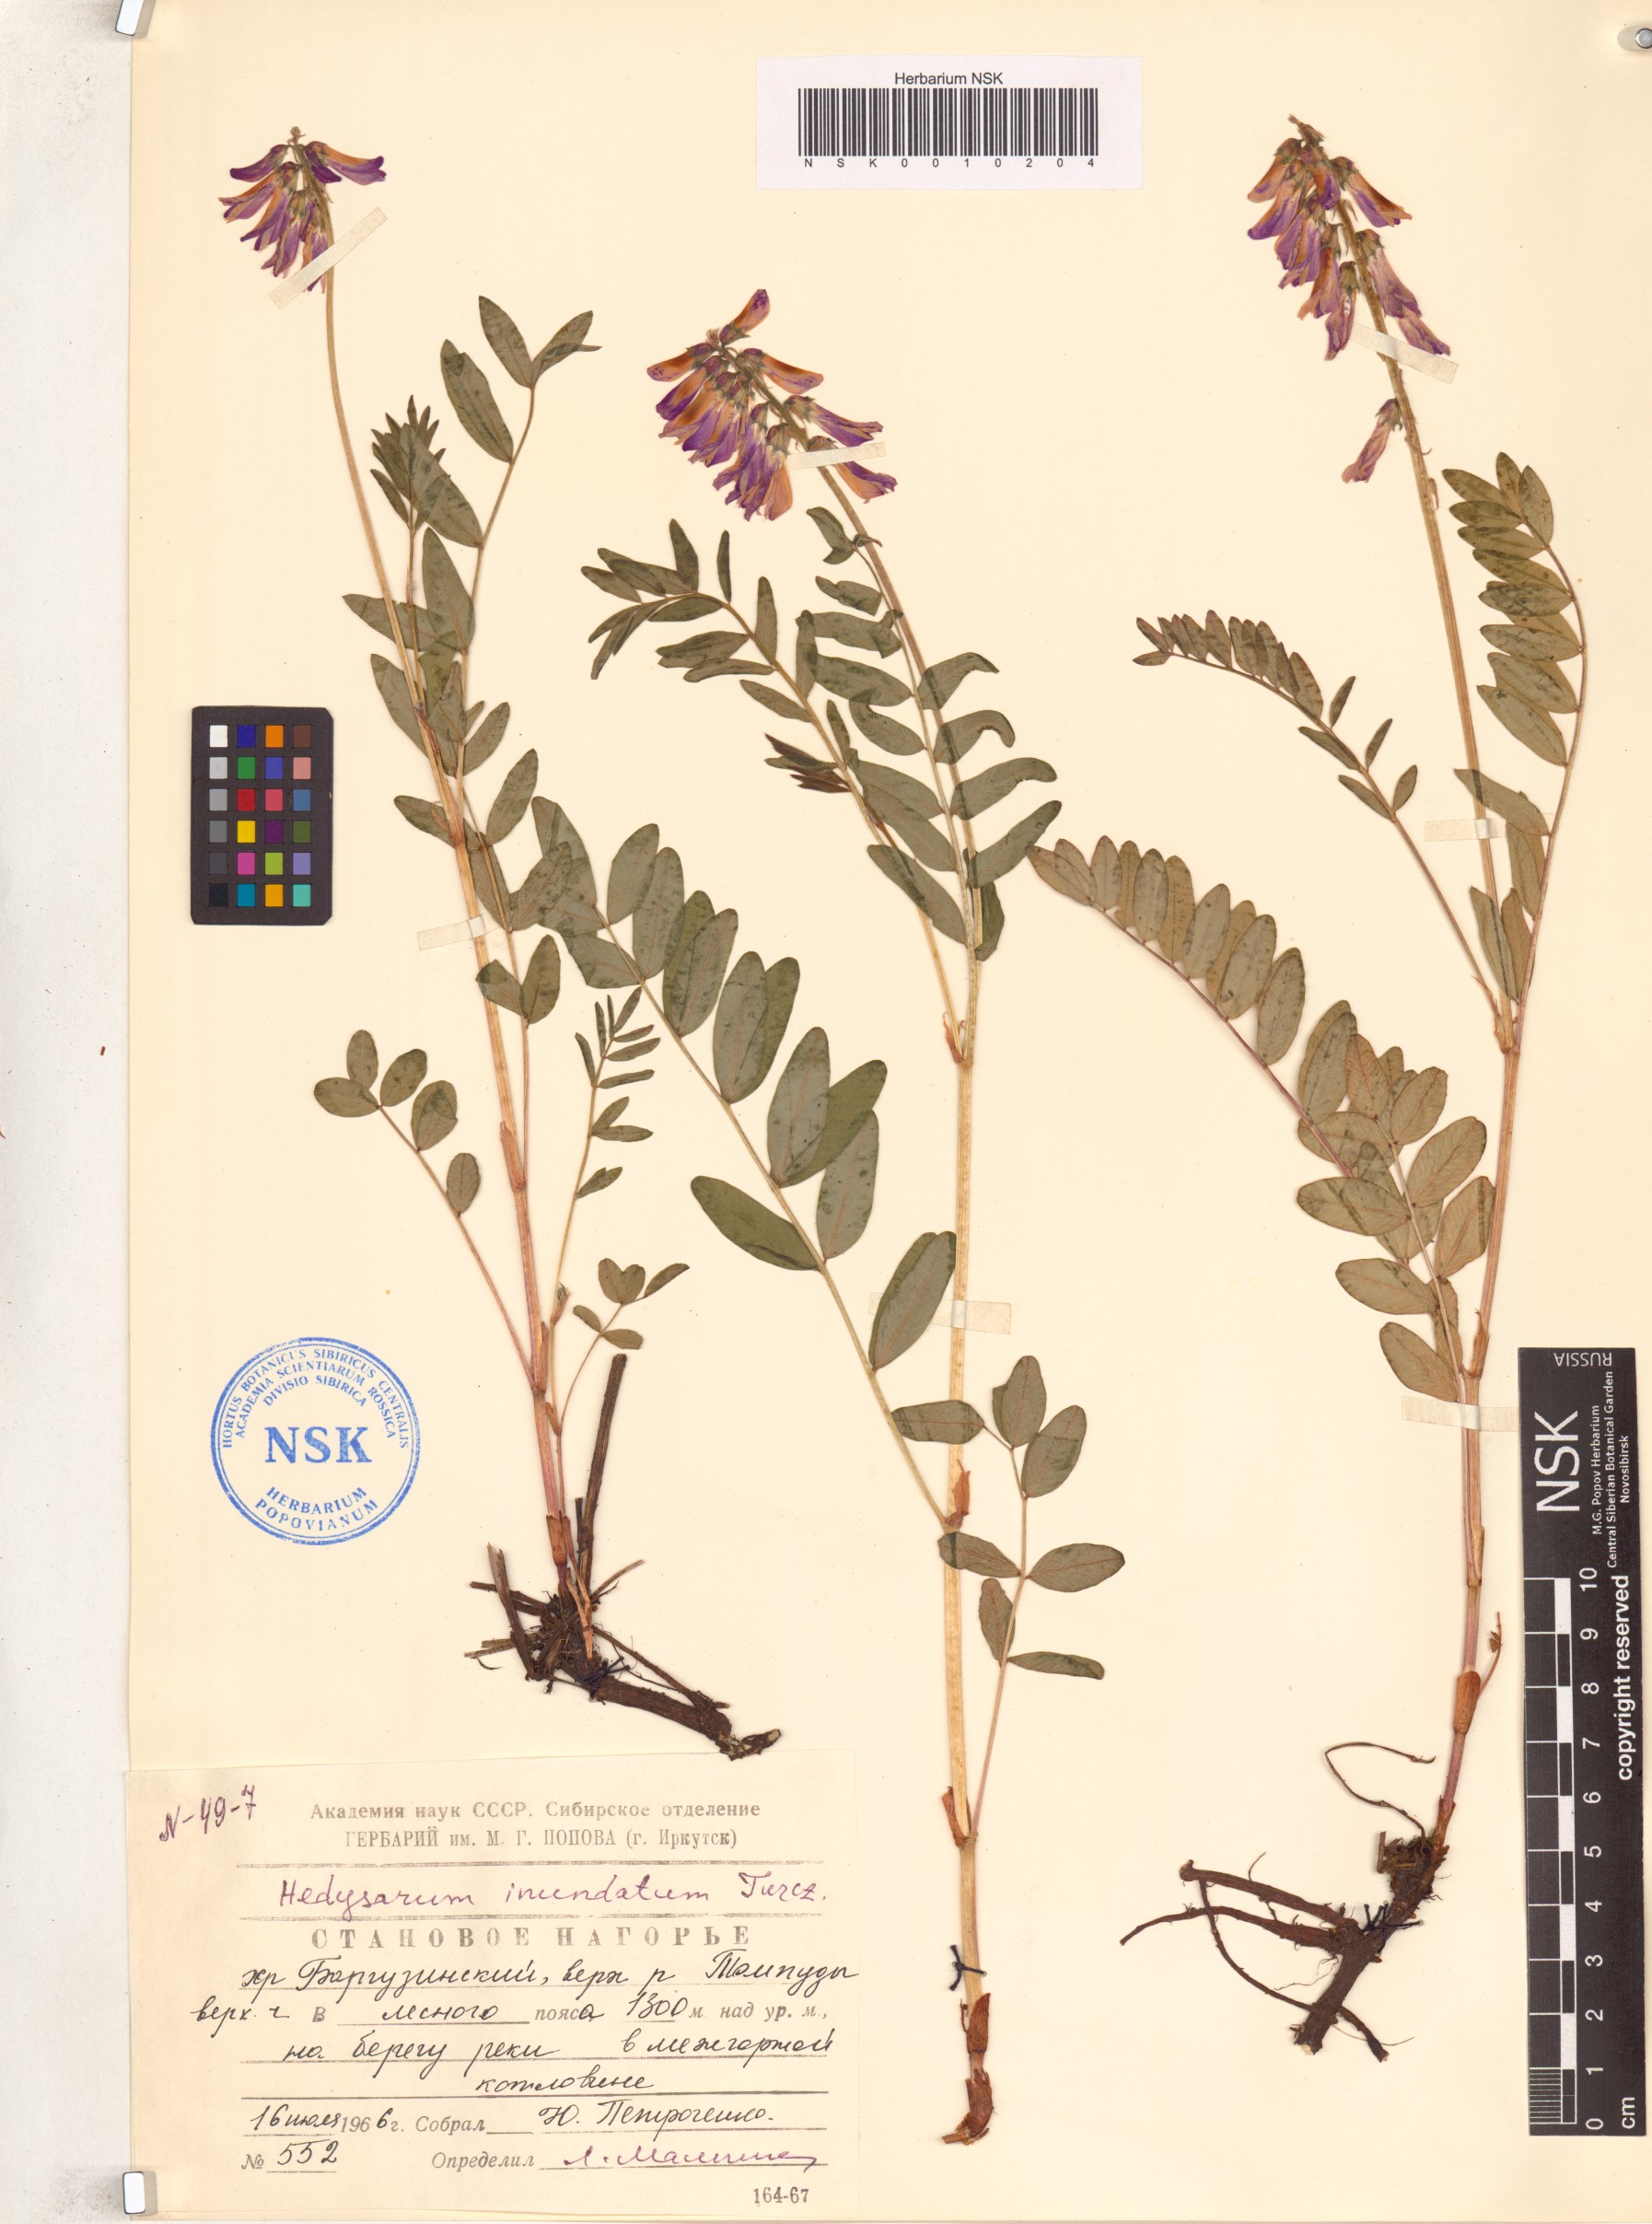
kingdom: Plantae
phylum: Tracheophyta
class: Magnoliopsida
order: Fabales
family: Fabaceae
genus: Hedysarum
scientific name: Hedysarum inundatum
